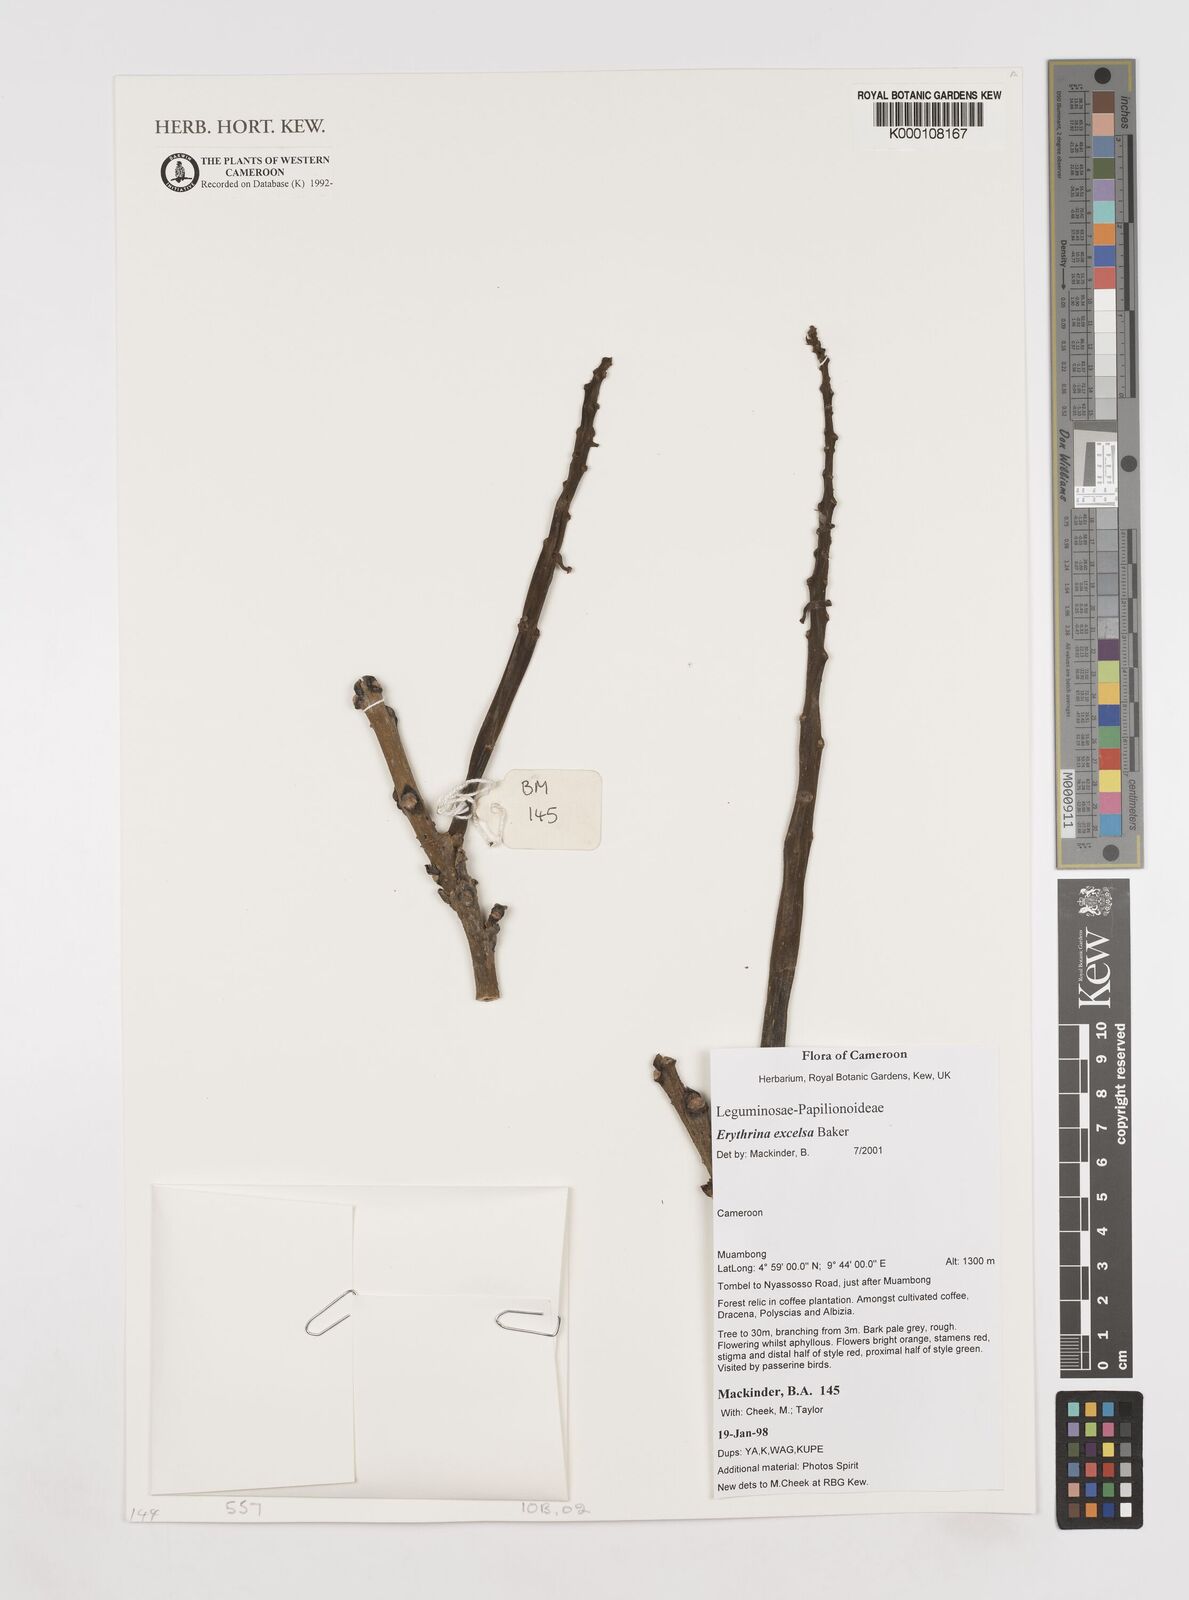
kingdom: Plantae
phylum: Tracheophyta
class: Magnoliopsida
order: Fabales
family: Fabaceae
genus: Erythrina
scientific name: Erythrina excelsa
